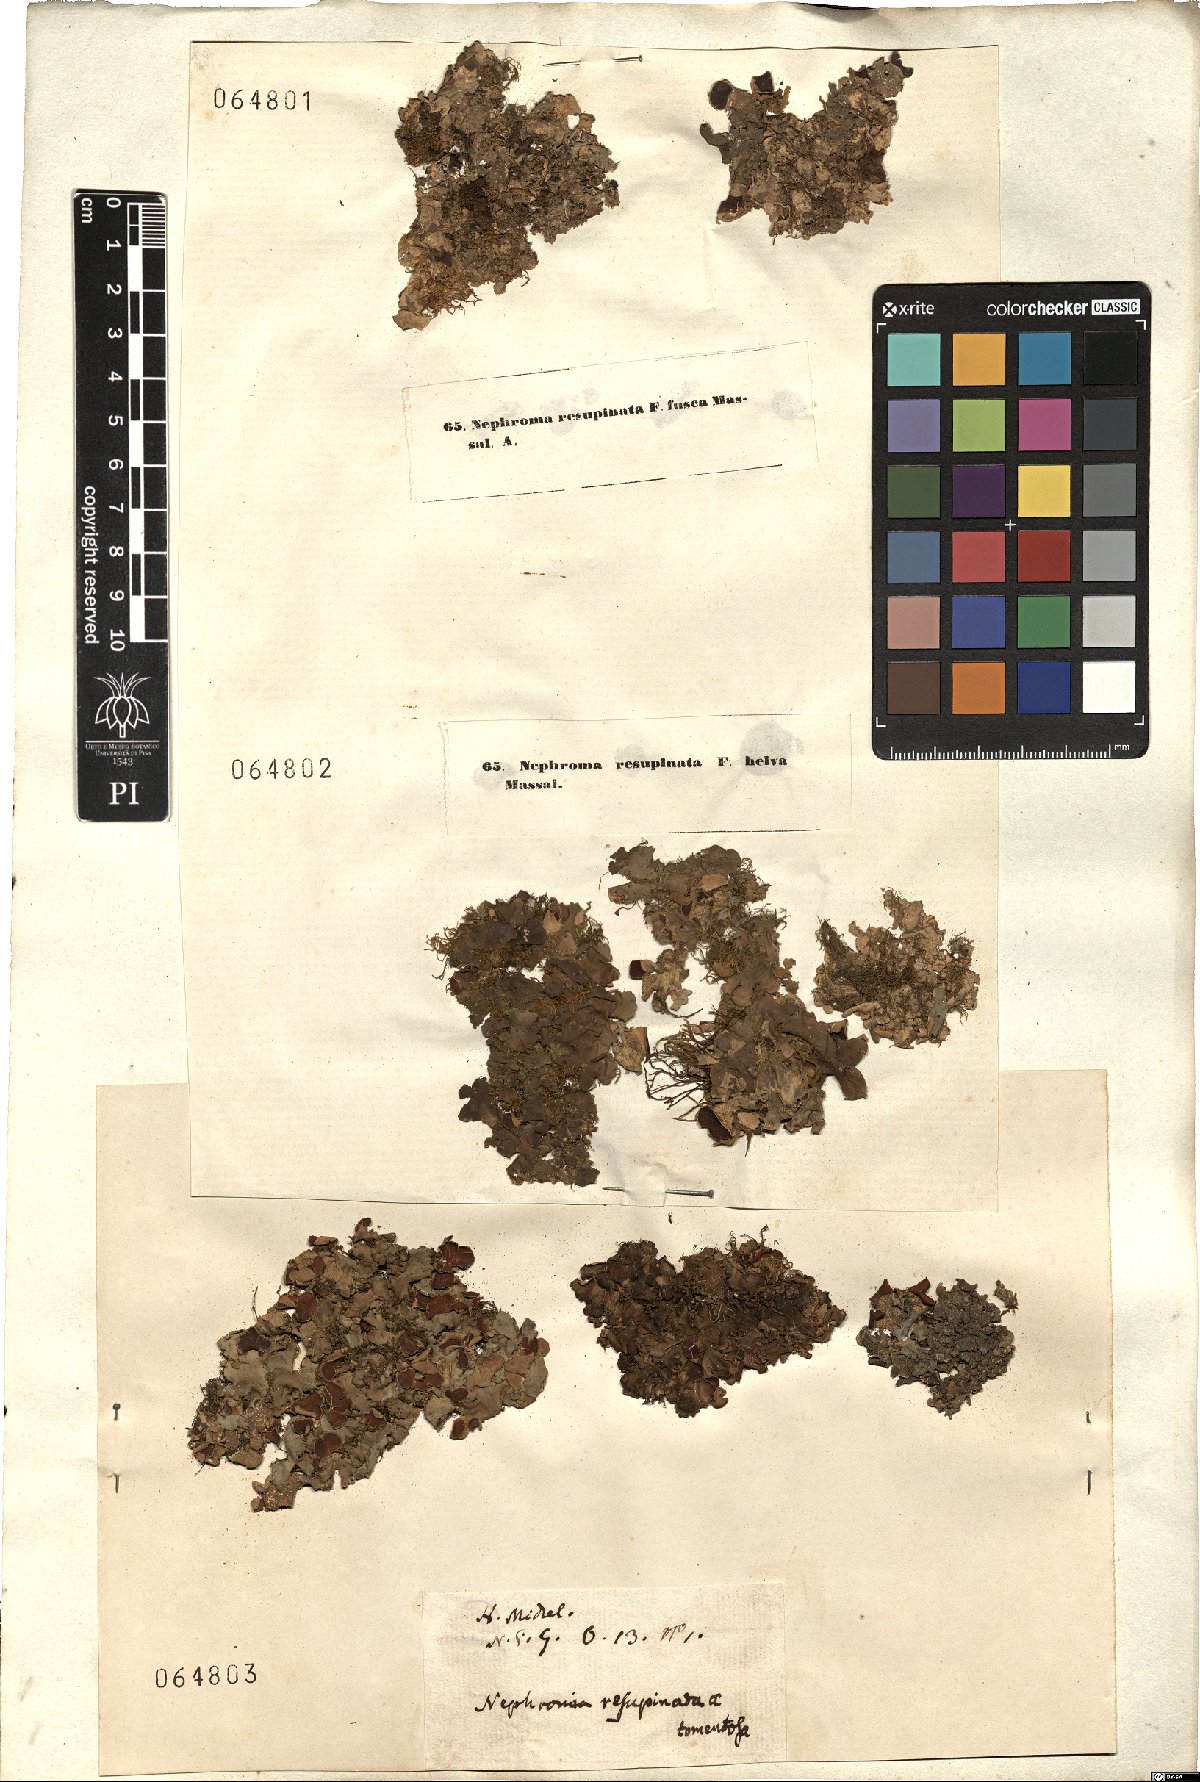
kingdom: Fungi
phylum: Ascomycota
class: Lecanoromycetes
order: Peltigerales
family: Nephromataceae
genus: Nephroma
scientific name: Nephroma resupinatum
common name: Pimpled kidney lichen
